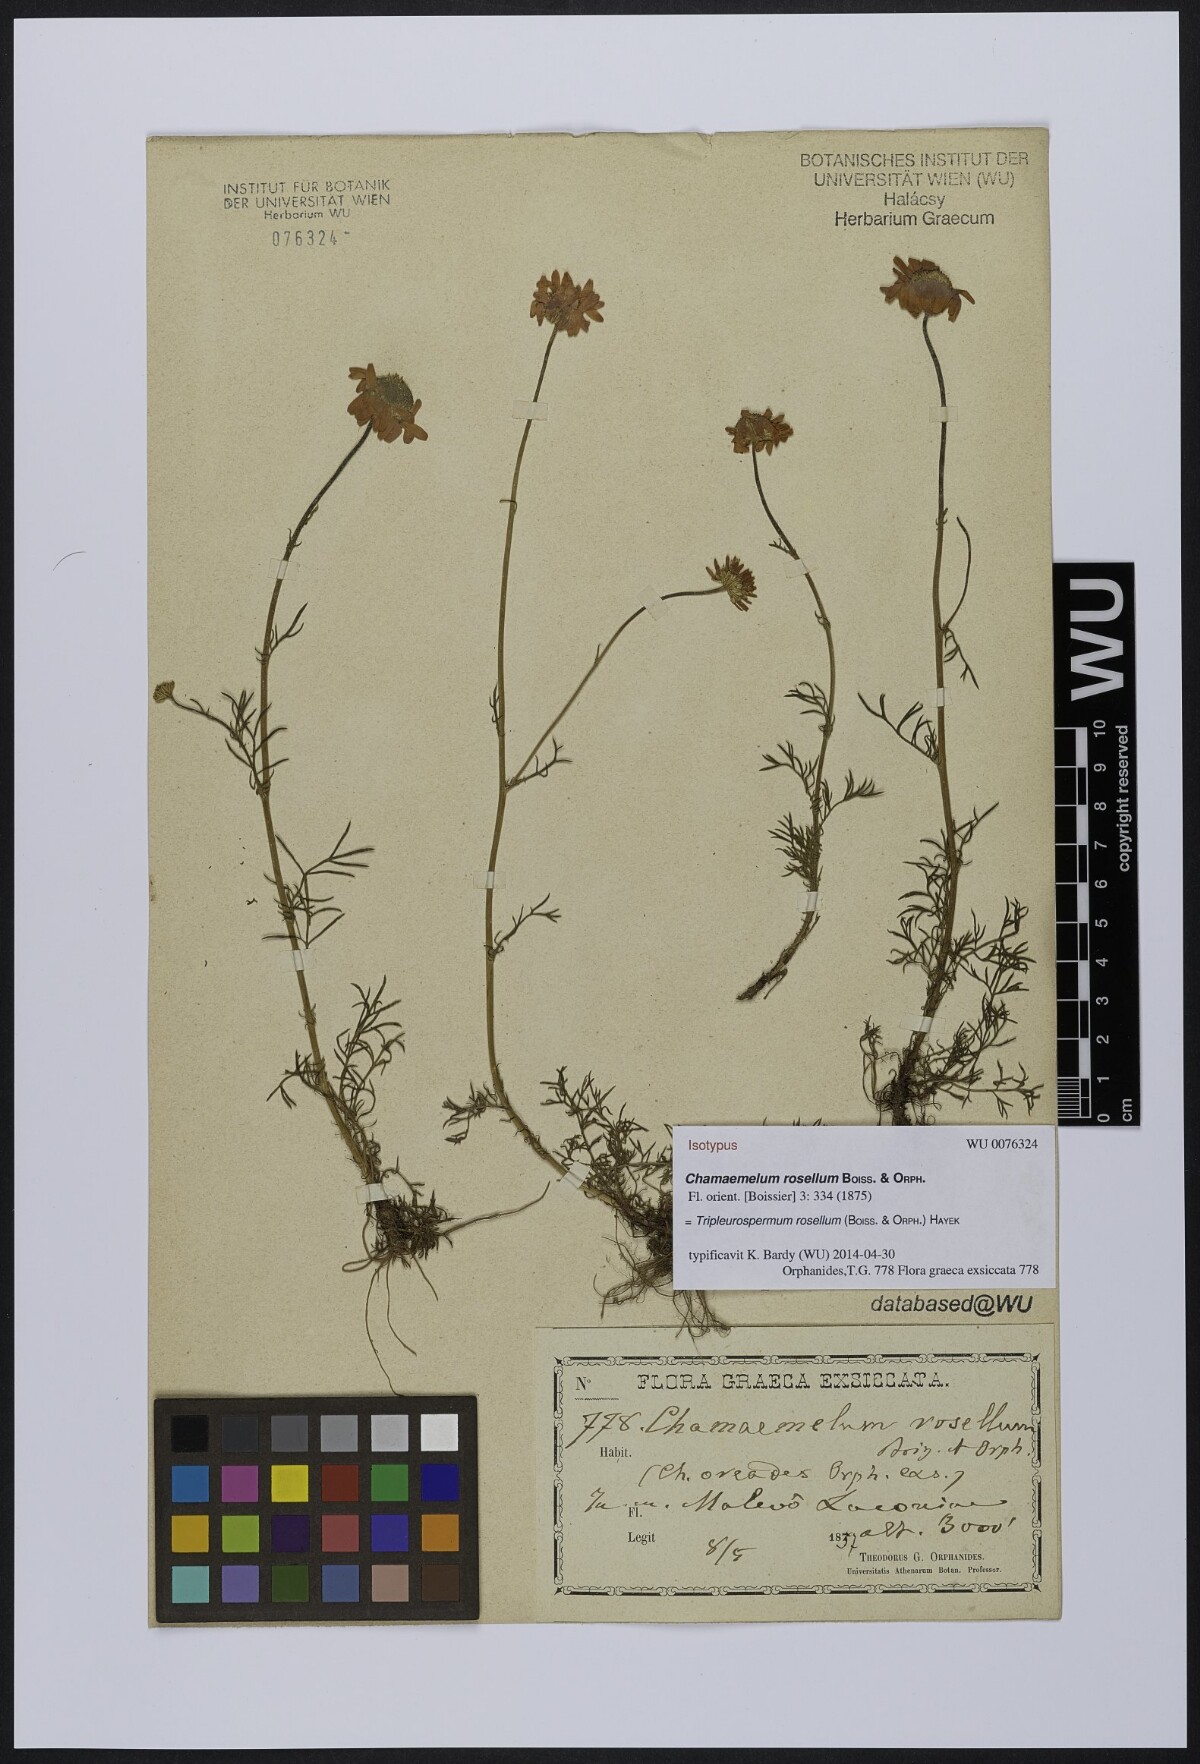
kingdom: Plantae
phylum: Tracheophyta
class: Magnoliopsida
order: Asterales
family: Asteraceae
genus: Tripleurospermum
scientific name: Tripleurospermum rosellum
